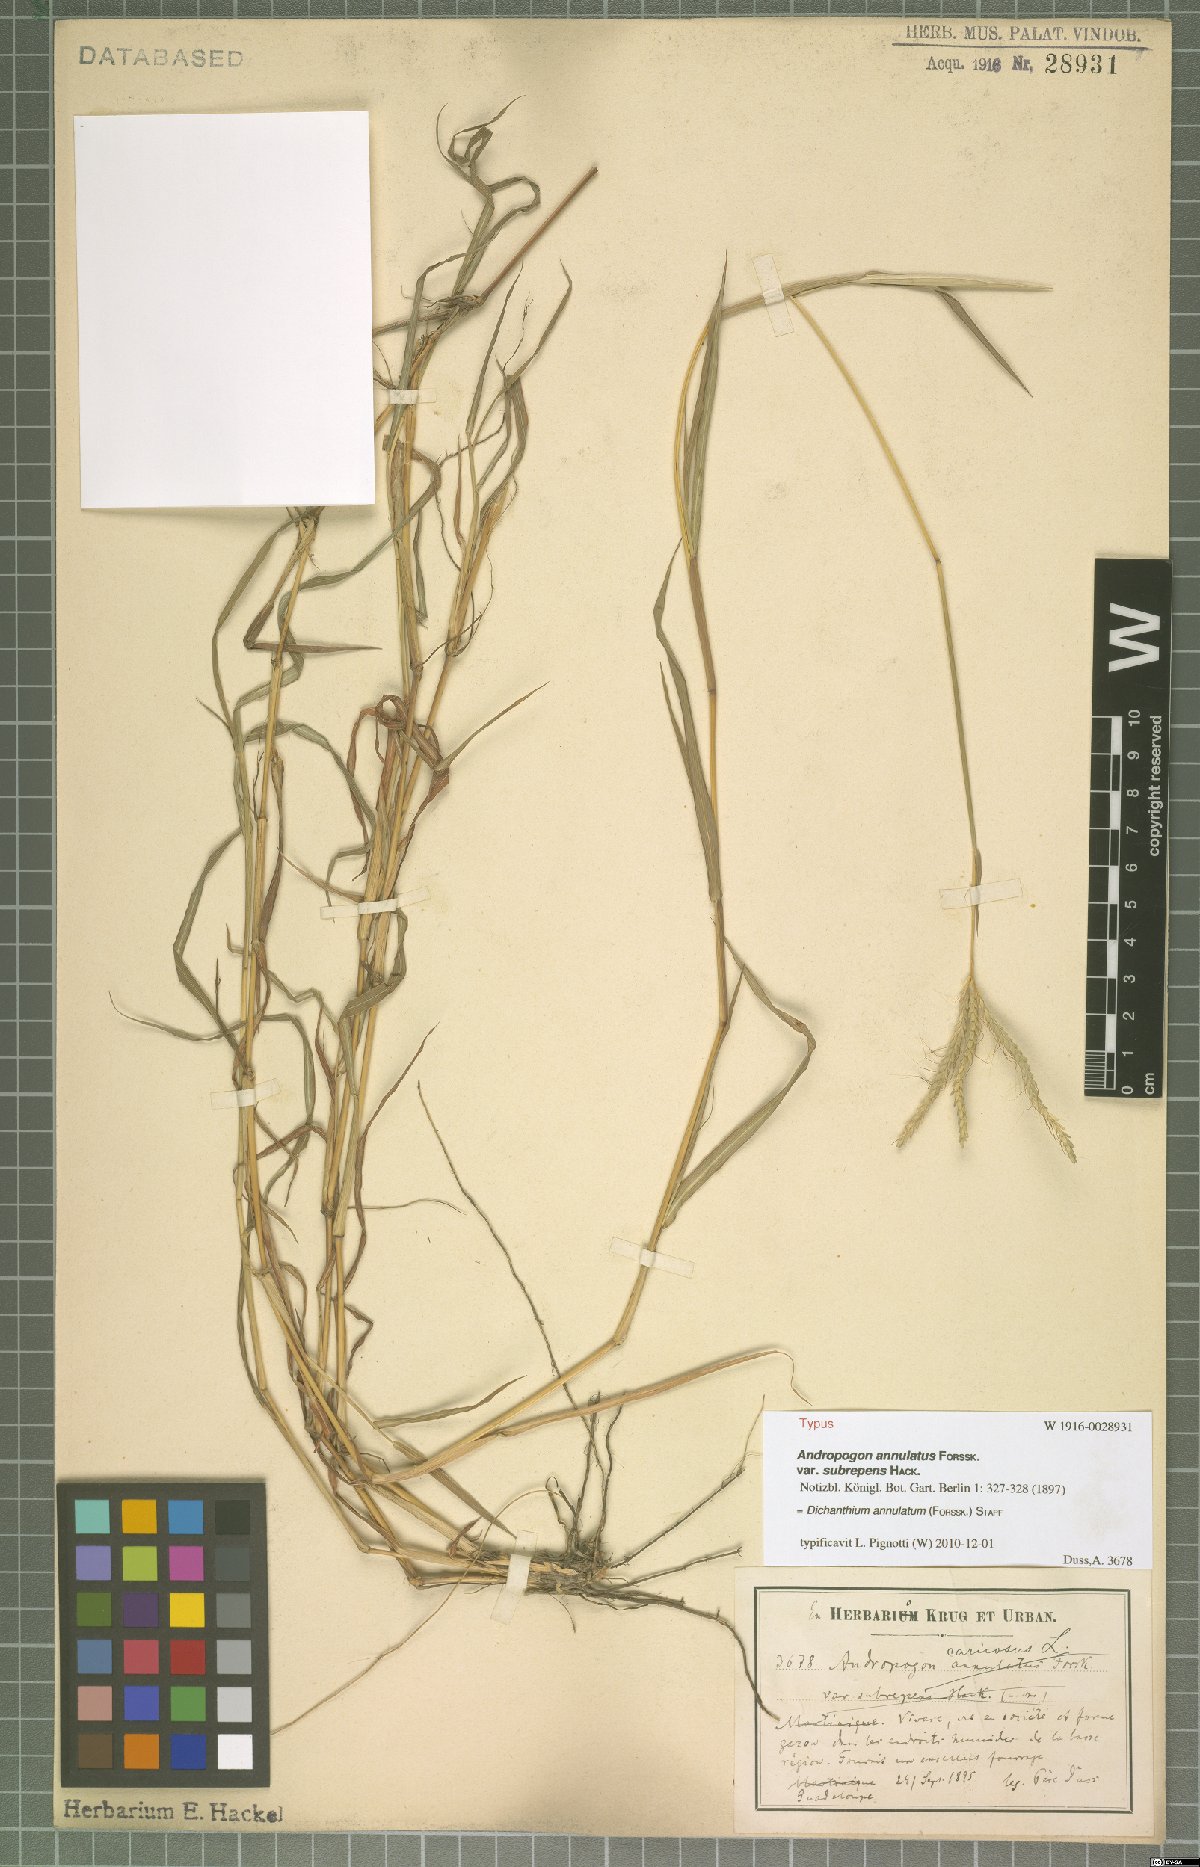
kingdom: Plantae
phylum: Tracheophyta
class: Liliopsida
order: Poales
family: Poaceae
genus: Dichanthium
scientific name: Dichanthium annulatum
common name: Kleberg's bluestem
